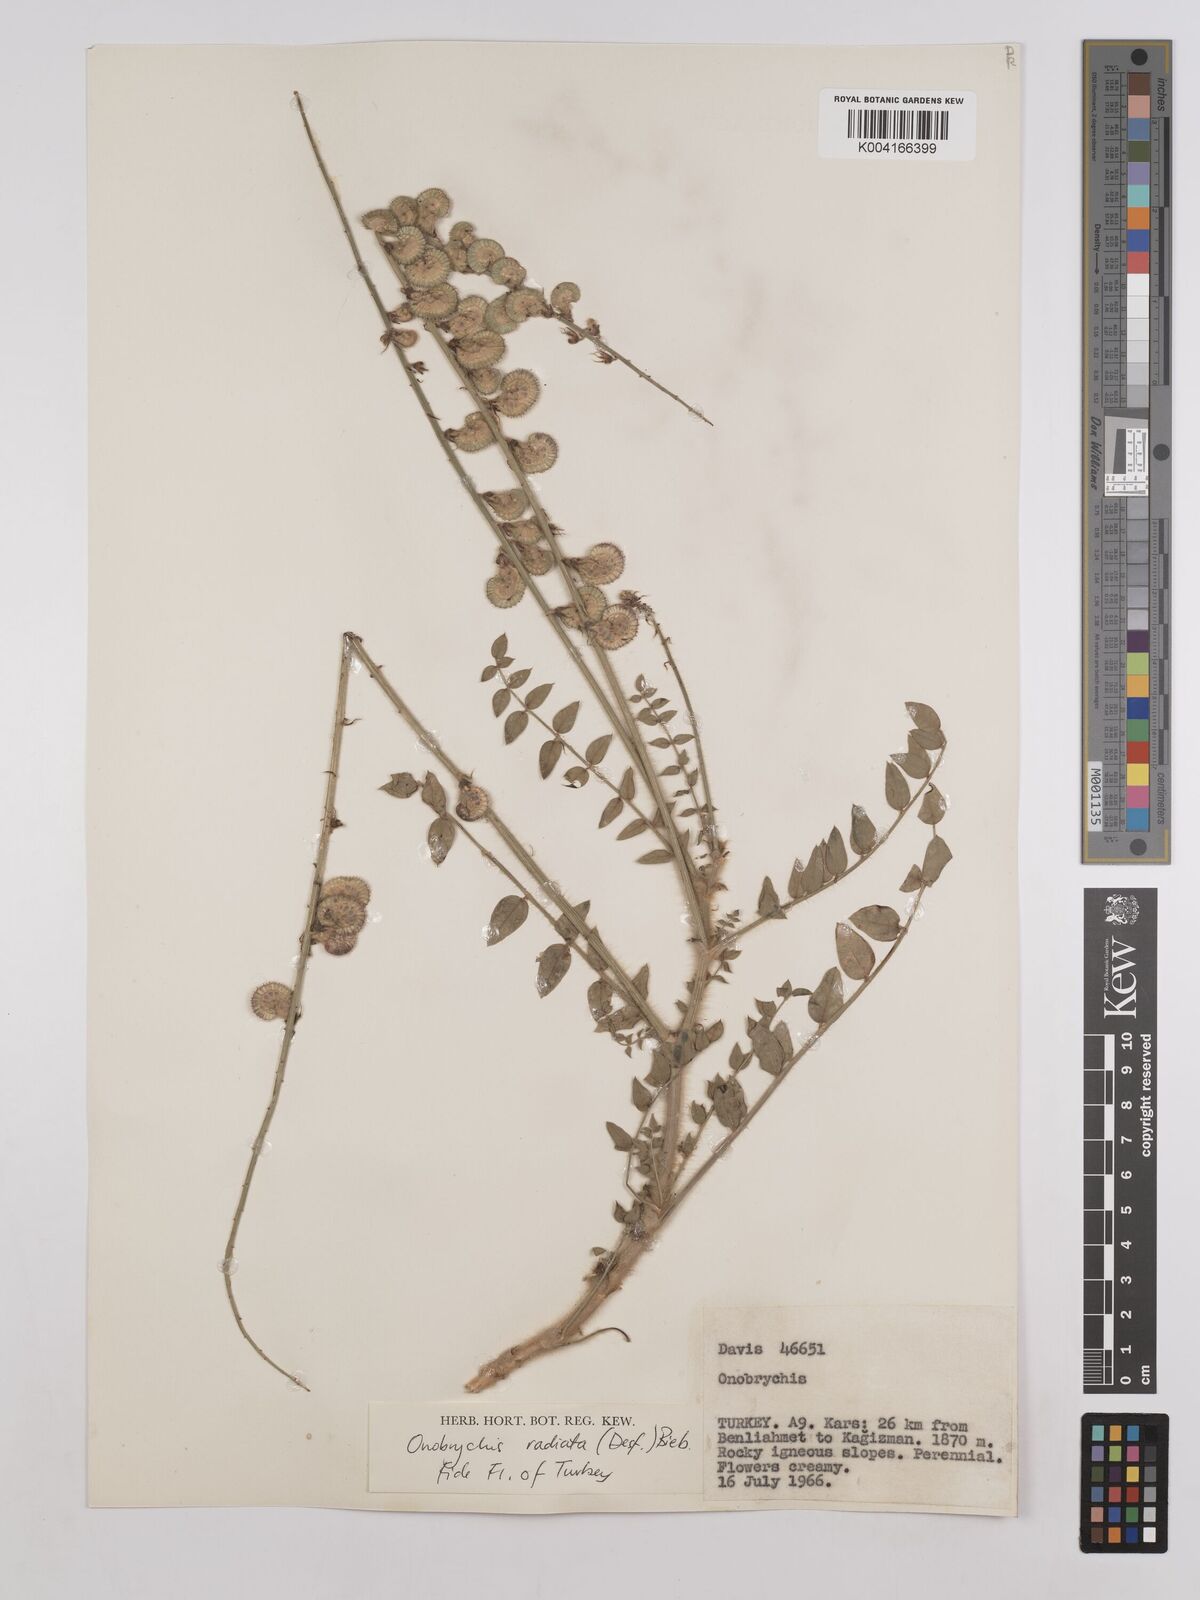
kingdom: Plantae
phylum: Tracheophyta
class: Magnoliopsida
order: Fabales
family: Fabaceae
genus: Onobrychis
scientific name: Onobrychis
